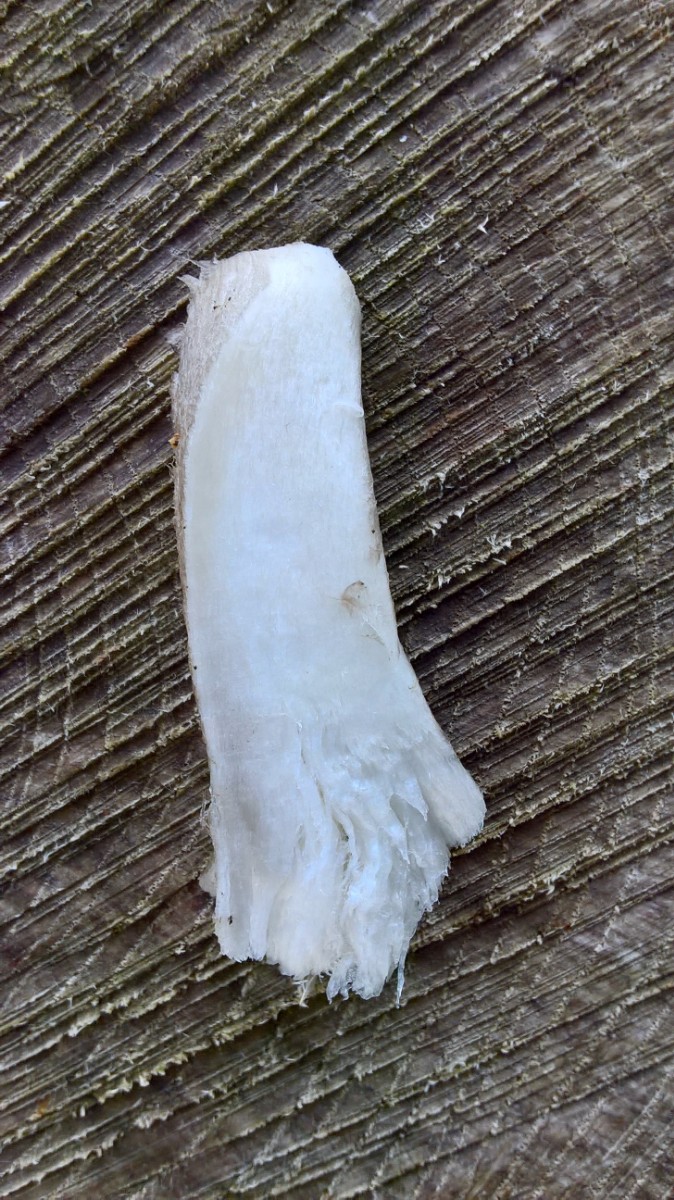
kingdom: Fungi
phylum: Basidiomycota
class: Agaricomycetes
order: Agaricales
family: Pluteaceae
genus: Pluteus
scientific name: Pluteus cervinus
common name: sodfarvet skærmhat
